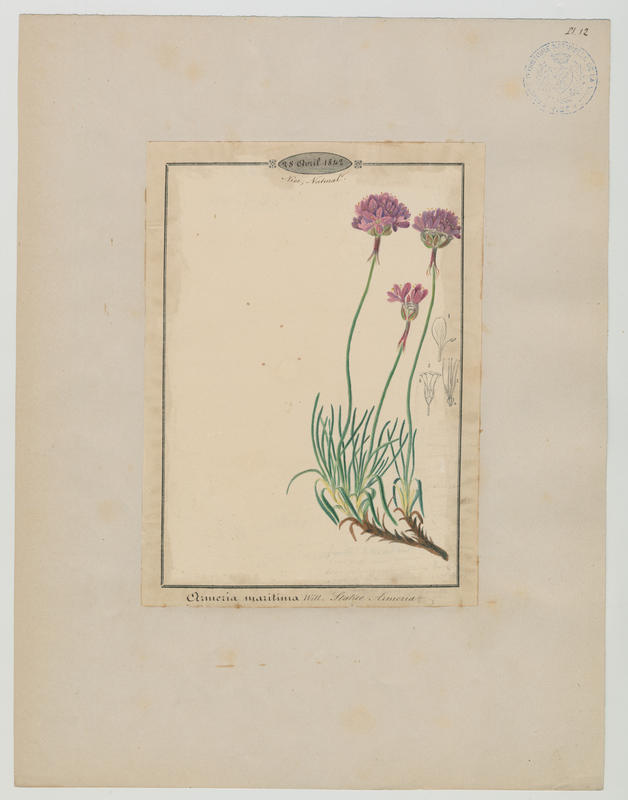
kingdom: Plantae
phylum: Tracheophyta
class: Magnoliopsida
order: Caryophyllales
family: Plumbaginaceae
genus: Armeria
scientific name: Armeria maritima
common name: Thrift
